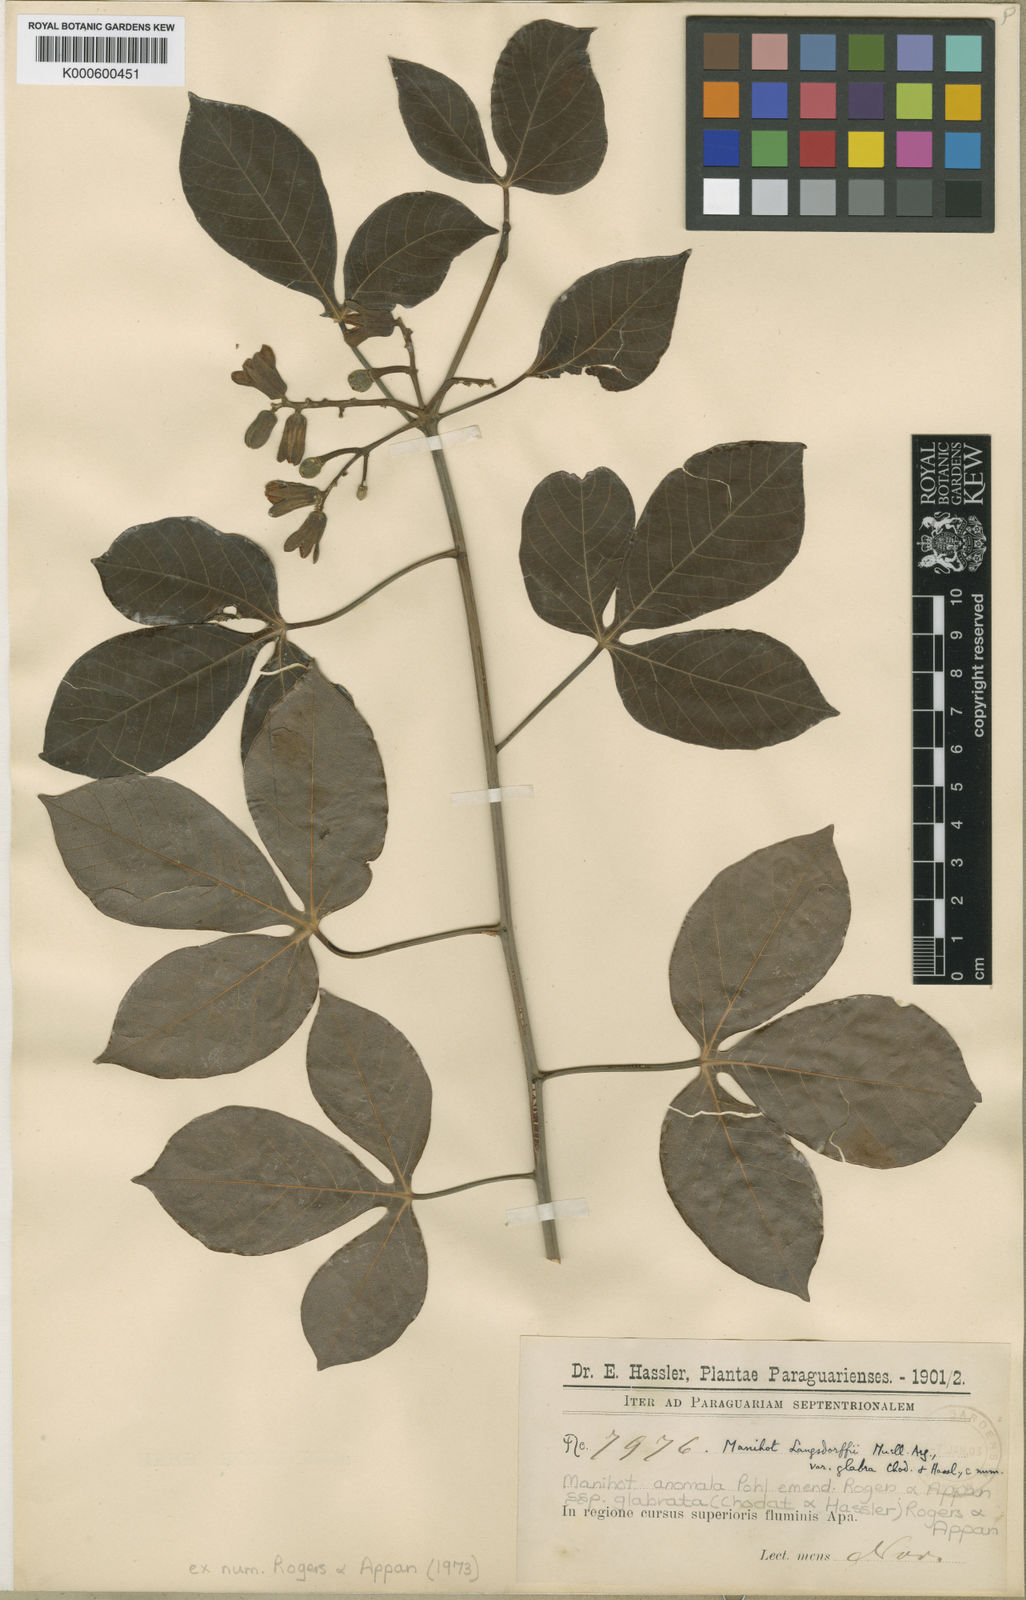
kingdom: Plantae
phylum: Tracheophyta
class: Magnoliopsida
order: Malpighiales
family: Euphorbiaceae
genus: Manihot
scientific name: Manihot anomala
